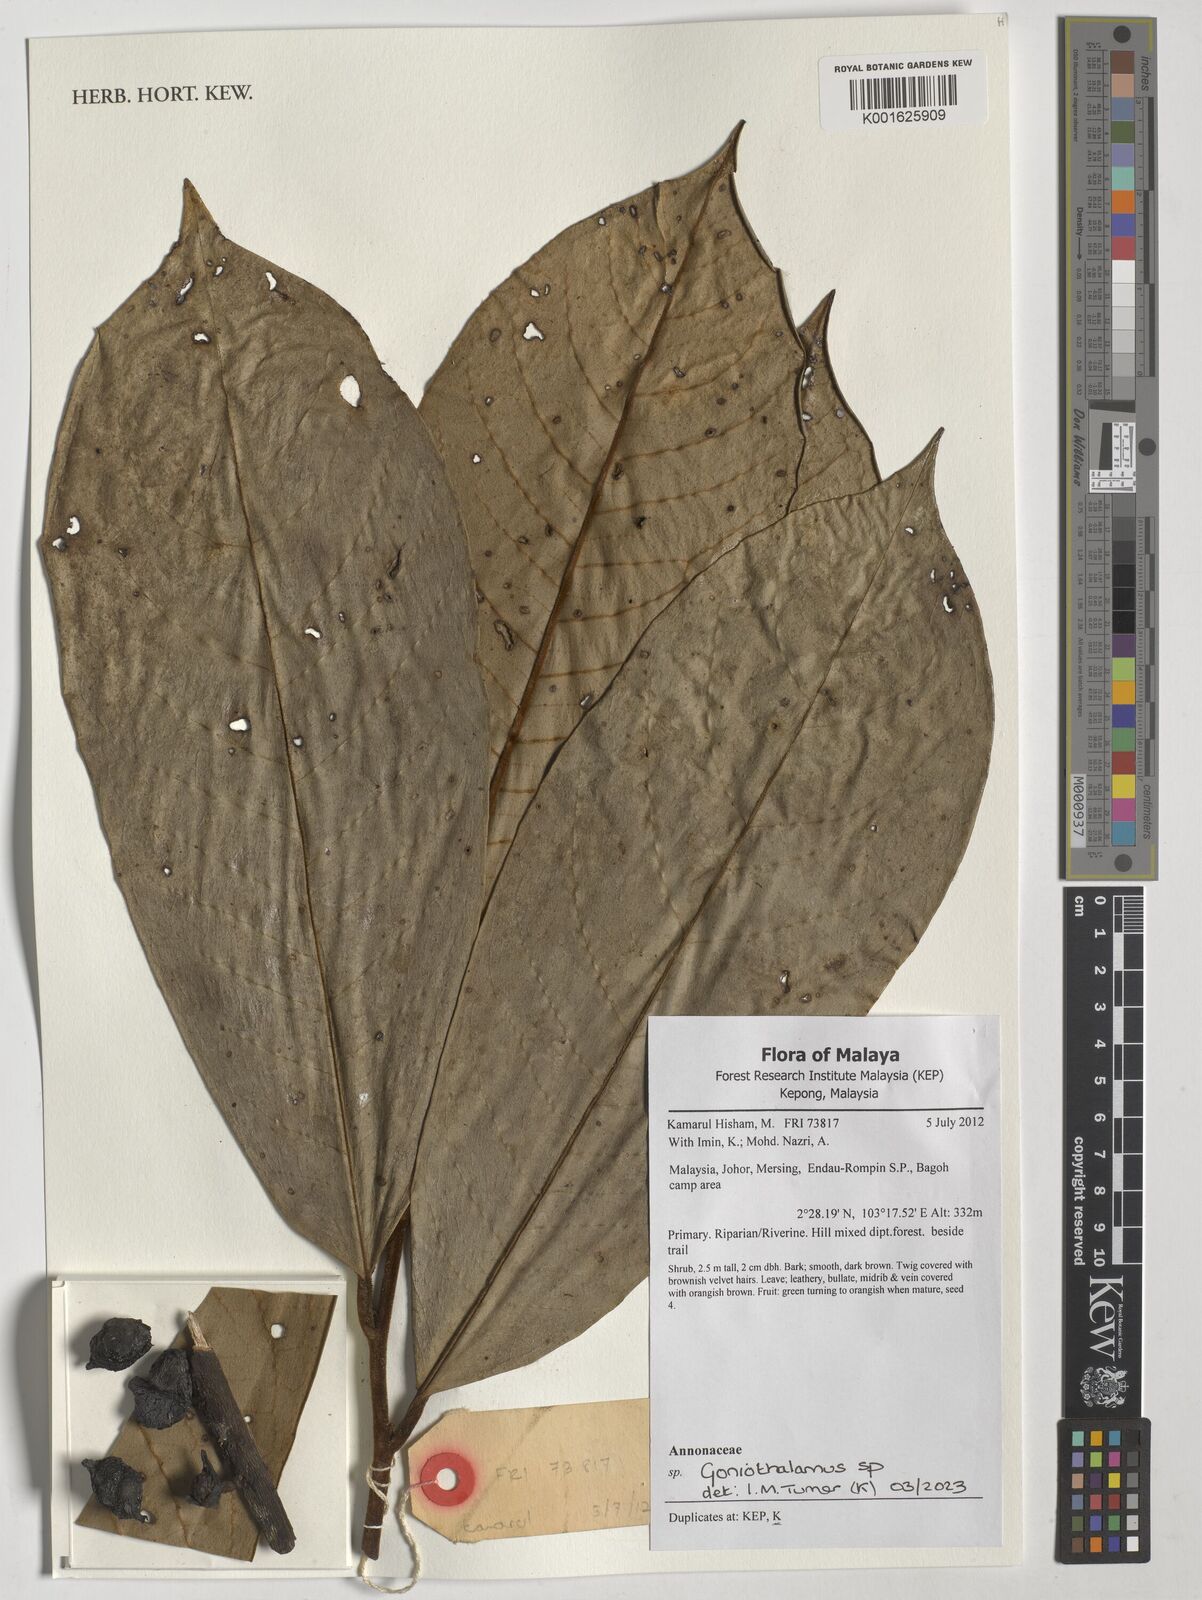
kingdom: Plantae
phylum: Tracheophyta
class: Magnoliopsida
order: Magnoliales
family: Annonaceae
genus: Goniothalamus
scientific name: Goniothalamus
